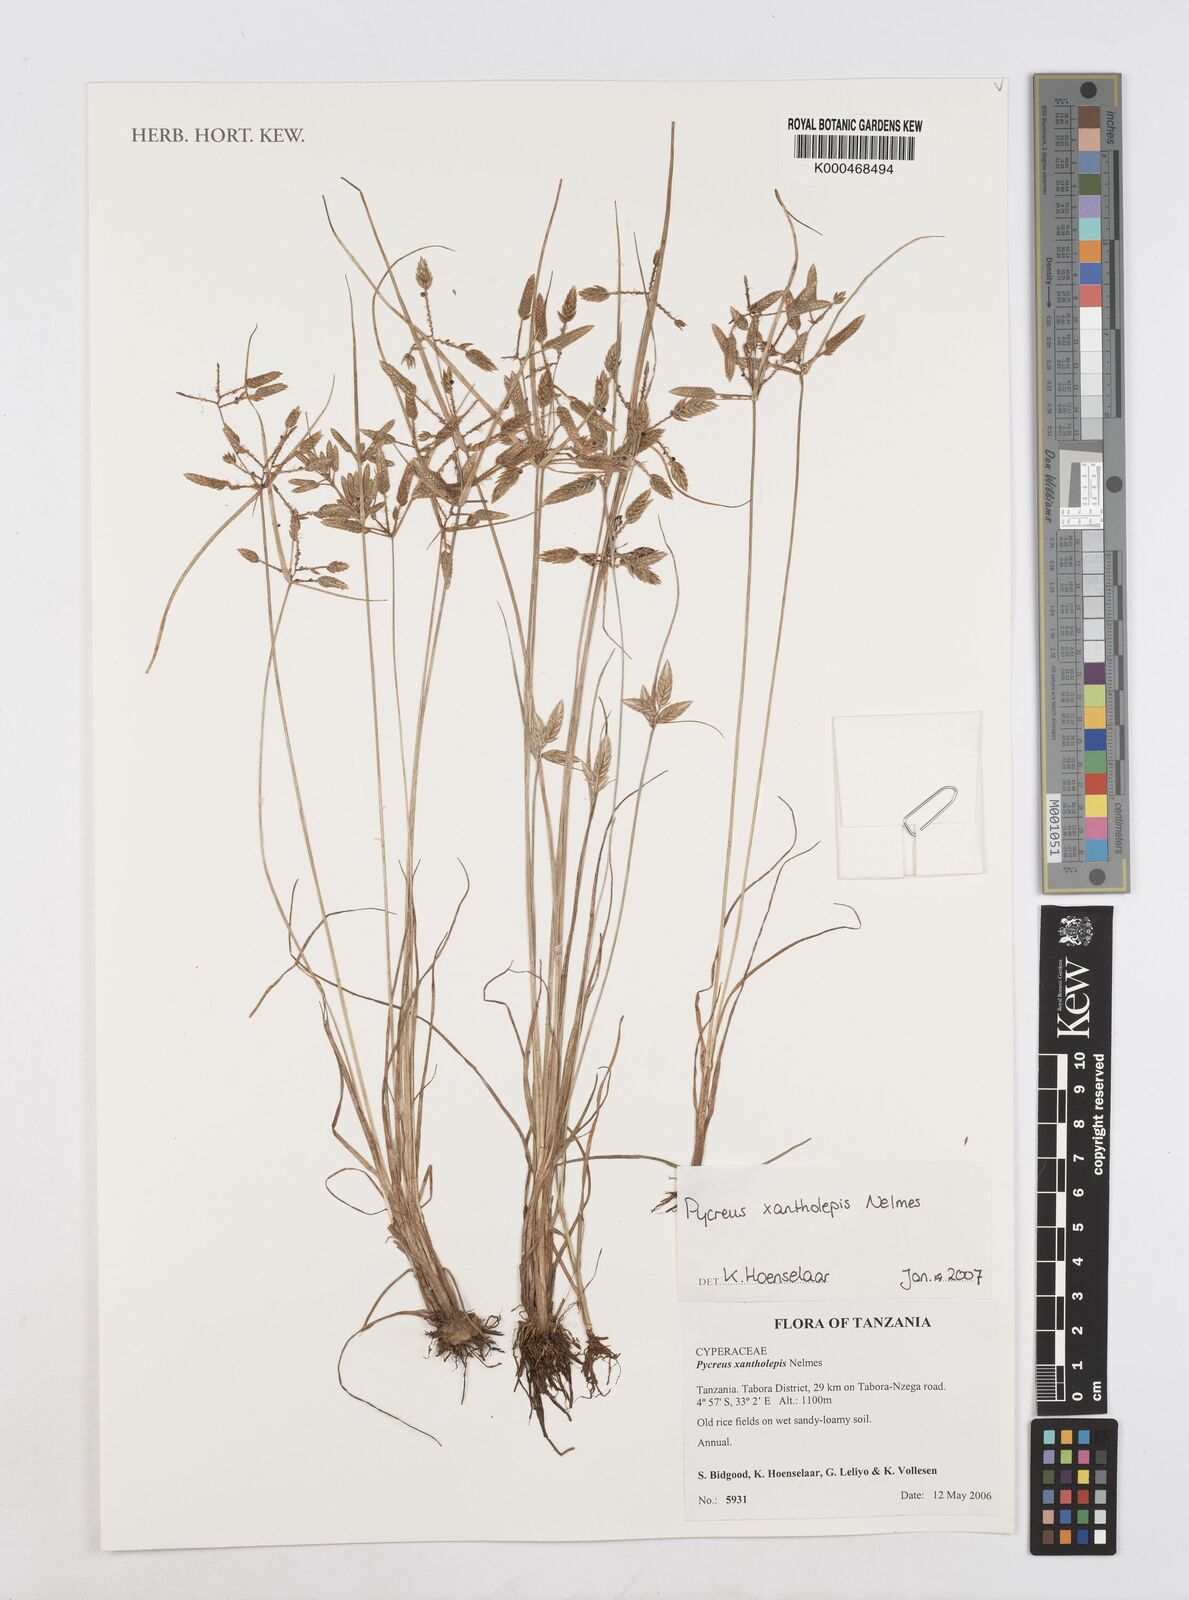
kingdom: Plantae
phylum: Tracheophyta
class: Liliopsida
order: Poales
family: Cyperaceae
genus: Cyperus
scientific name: Cyperus xantholepis
